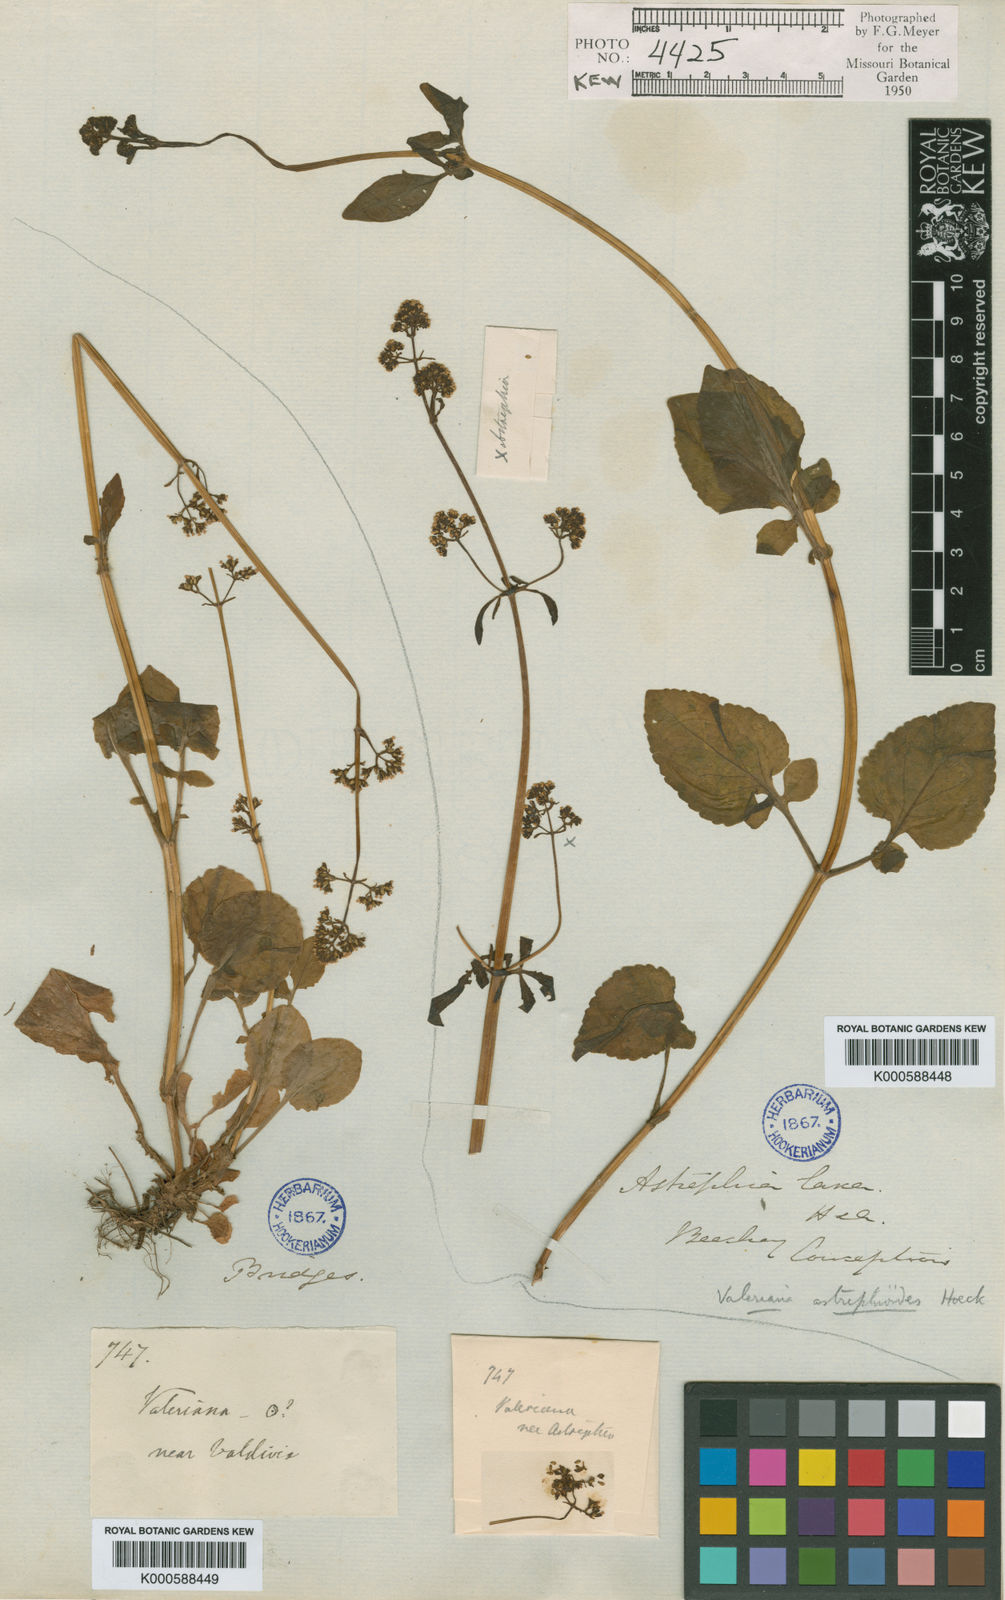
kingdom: Plantae
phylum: Tracheophyta
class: Magnoliopsida
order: Dipsacales
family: Caprifoliaceae
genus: Valeriana
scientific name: Valeriana
